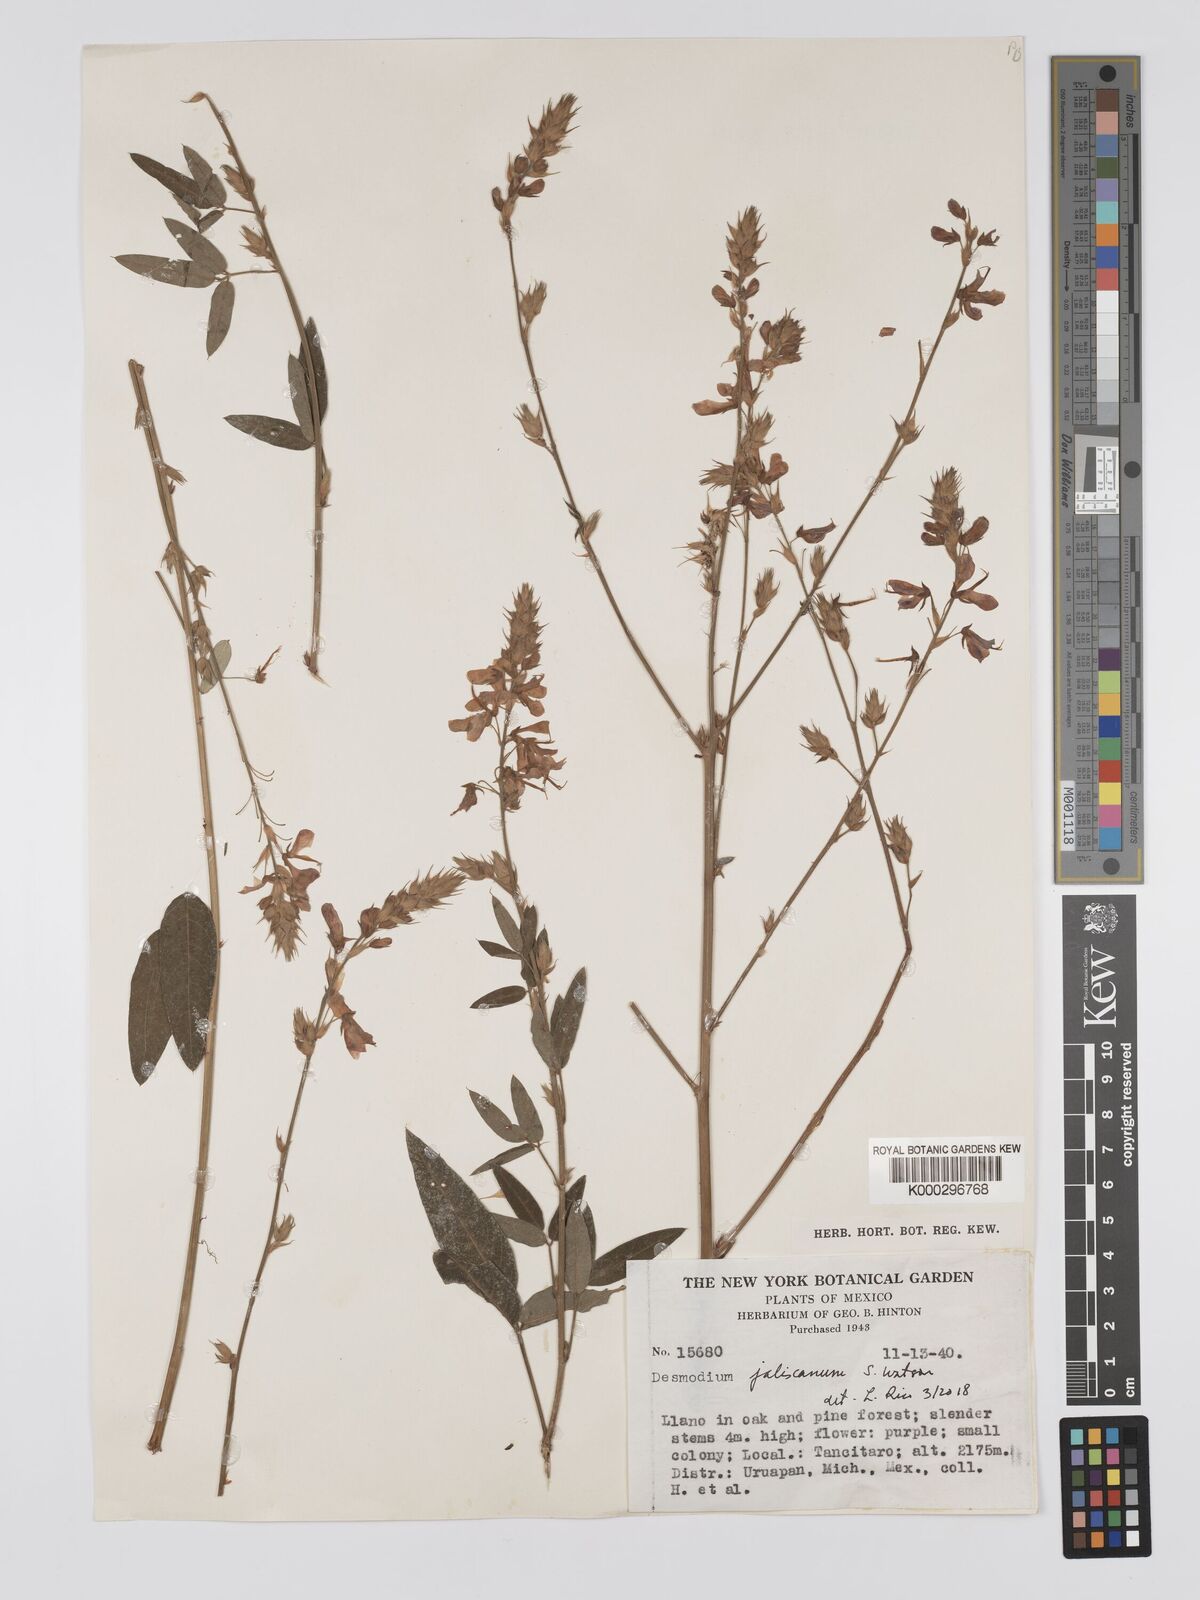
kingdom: Plantae
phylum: Tracheophyta
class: Magnoliopsida
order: Fabales
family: Fabaceae
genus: Desmodium
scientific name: Desmodium jaliscanum
